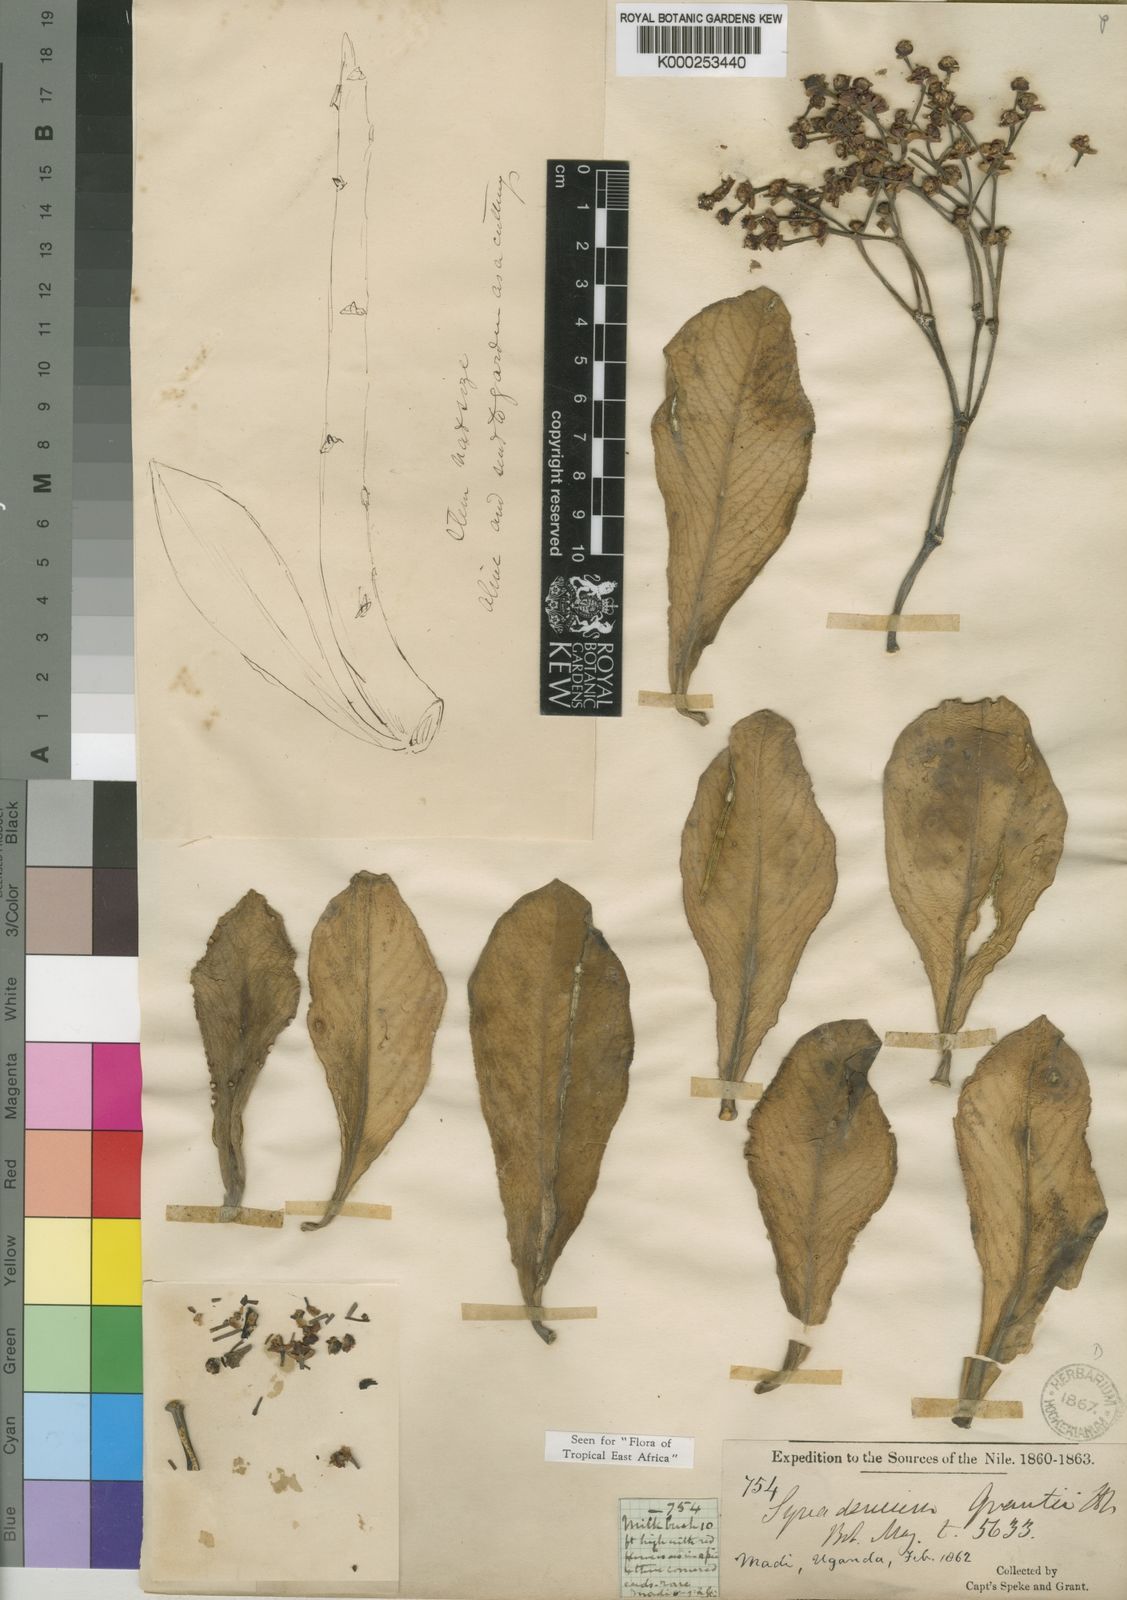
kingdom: Plantae
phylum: Tracheophyta
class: Magnoliopsida
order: Malpighiales
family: Euphorbiaceae
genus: Euphorbia
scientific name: Euphorbia umbellata
